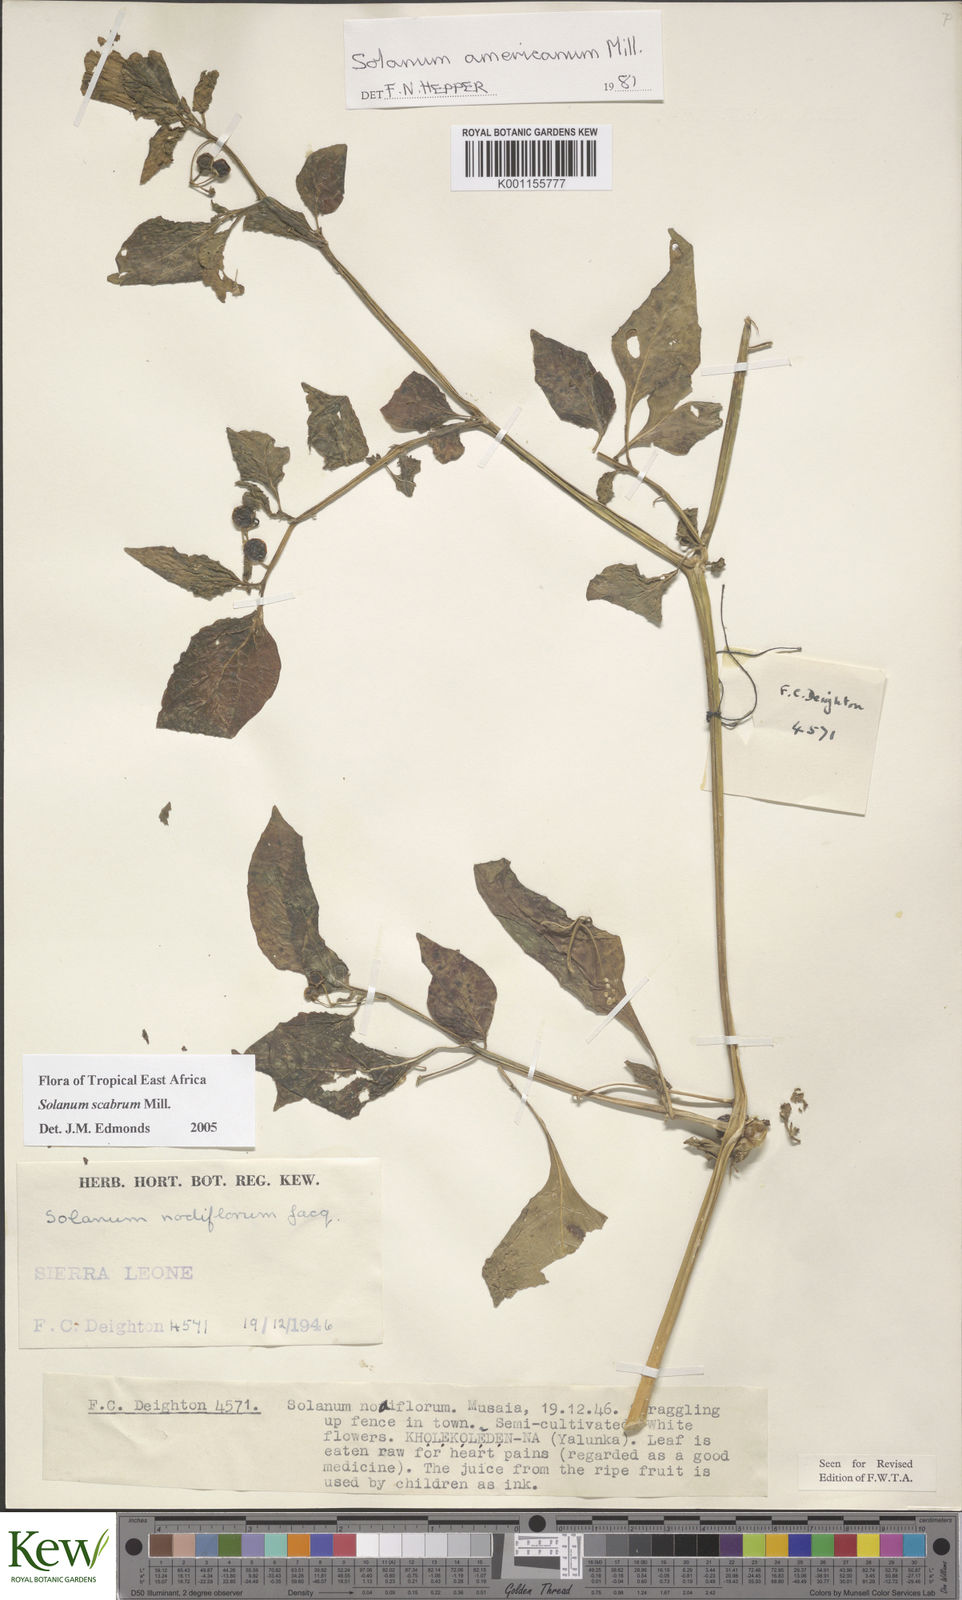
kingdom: Plantae
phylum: Tracheophyta
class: Magnoliopsida
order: Solanales
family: Solanaceae
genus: Solanum
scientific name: Solanum scabrum
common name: Garden-huckleberry
